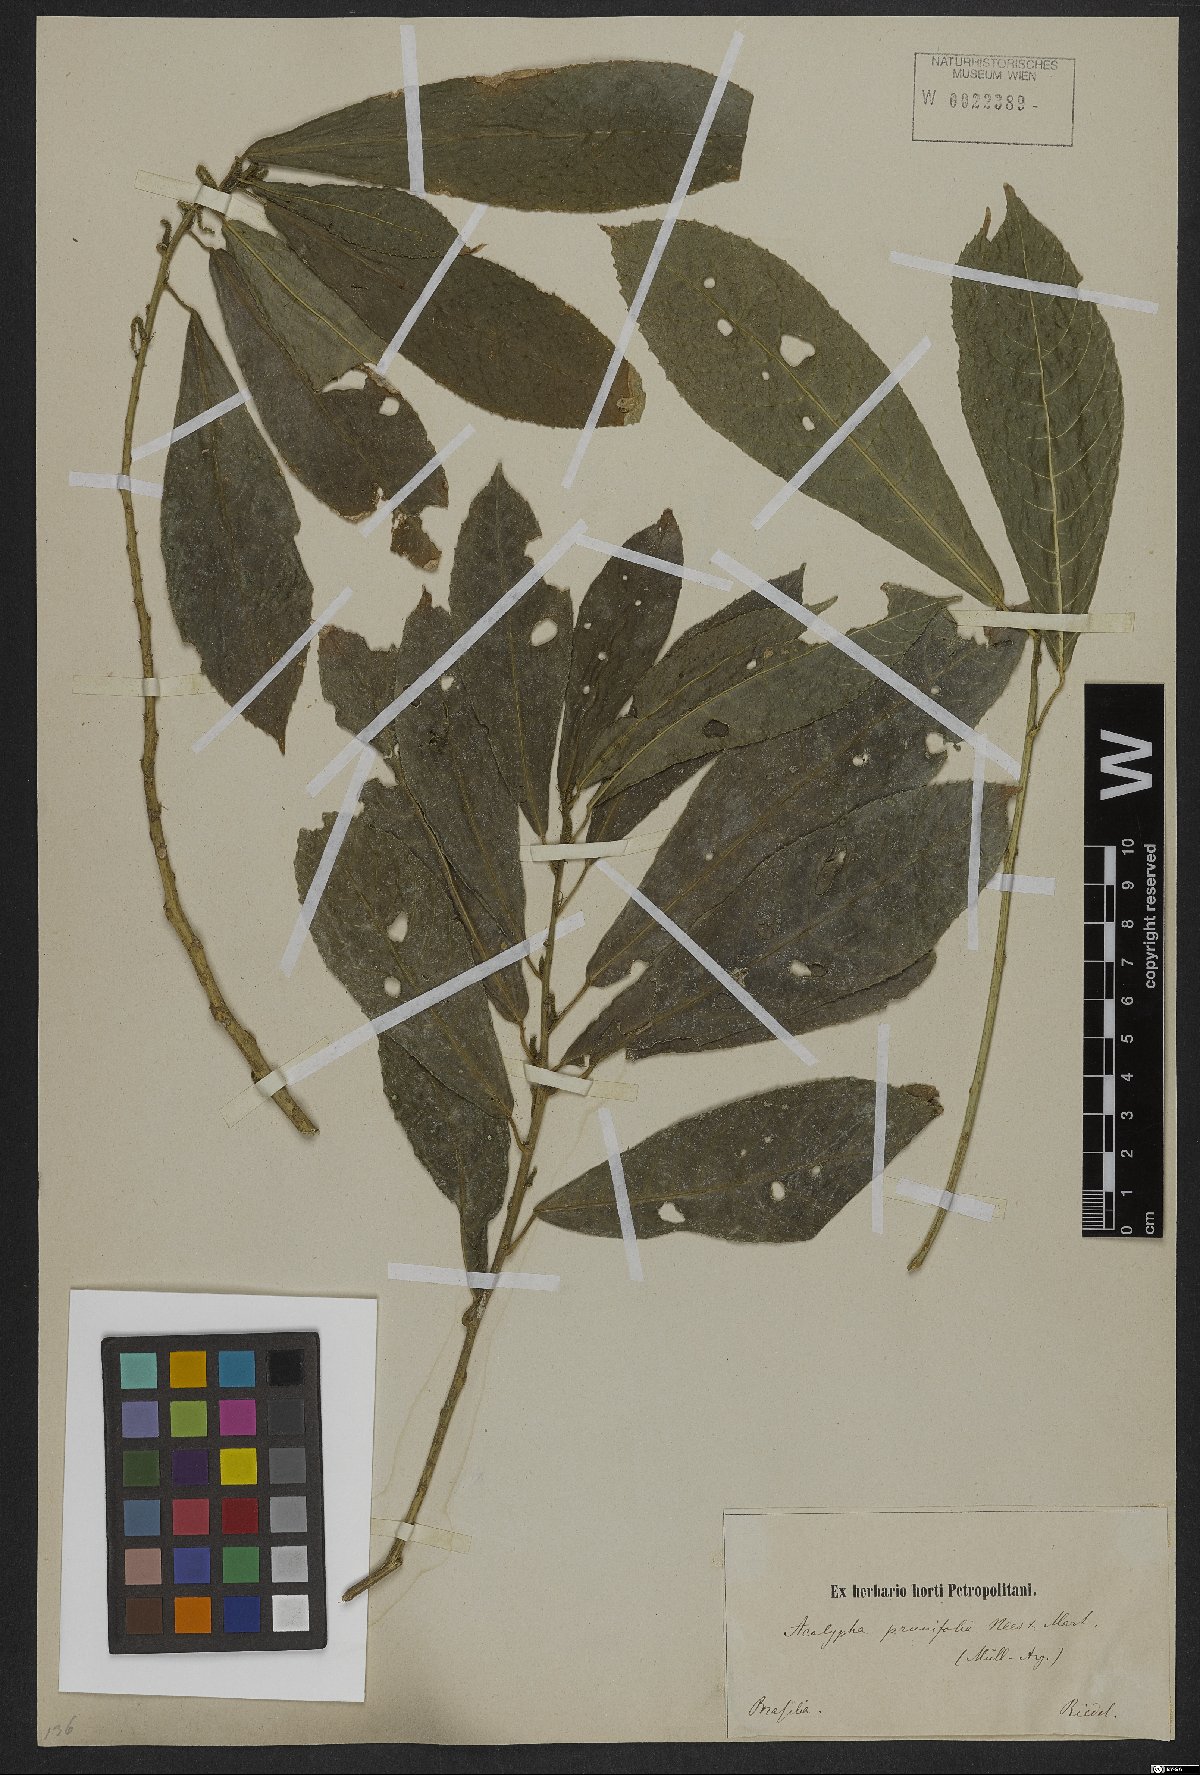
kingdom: Plantae
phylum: Tracheophyta
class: Magnoliopsida
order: Malpighiales
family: Euphorbiaceae
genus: Acalypha
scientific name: Acalypha klotzschii
